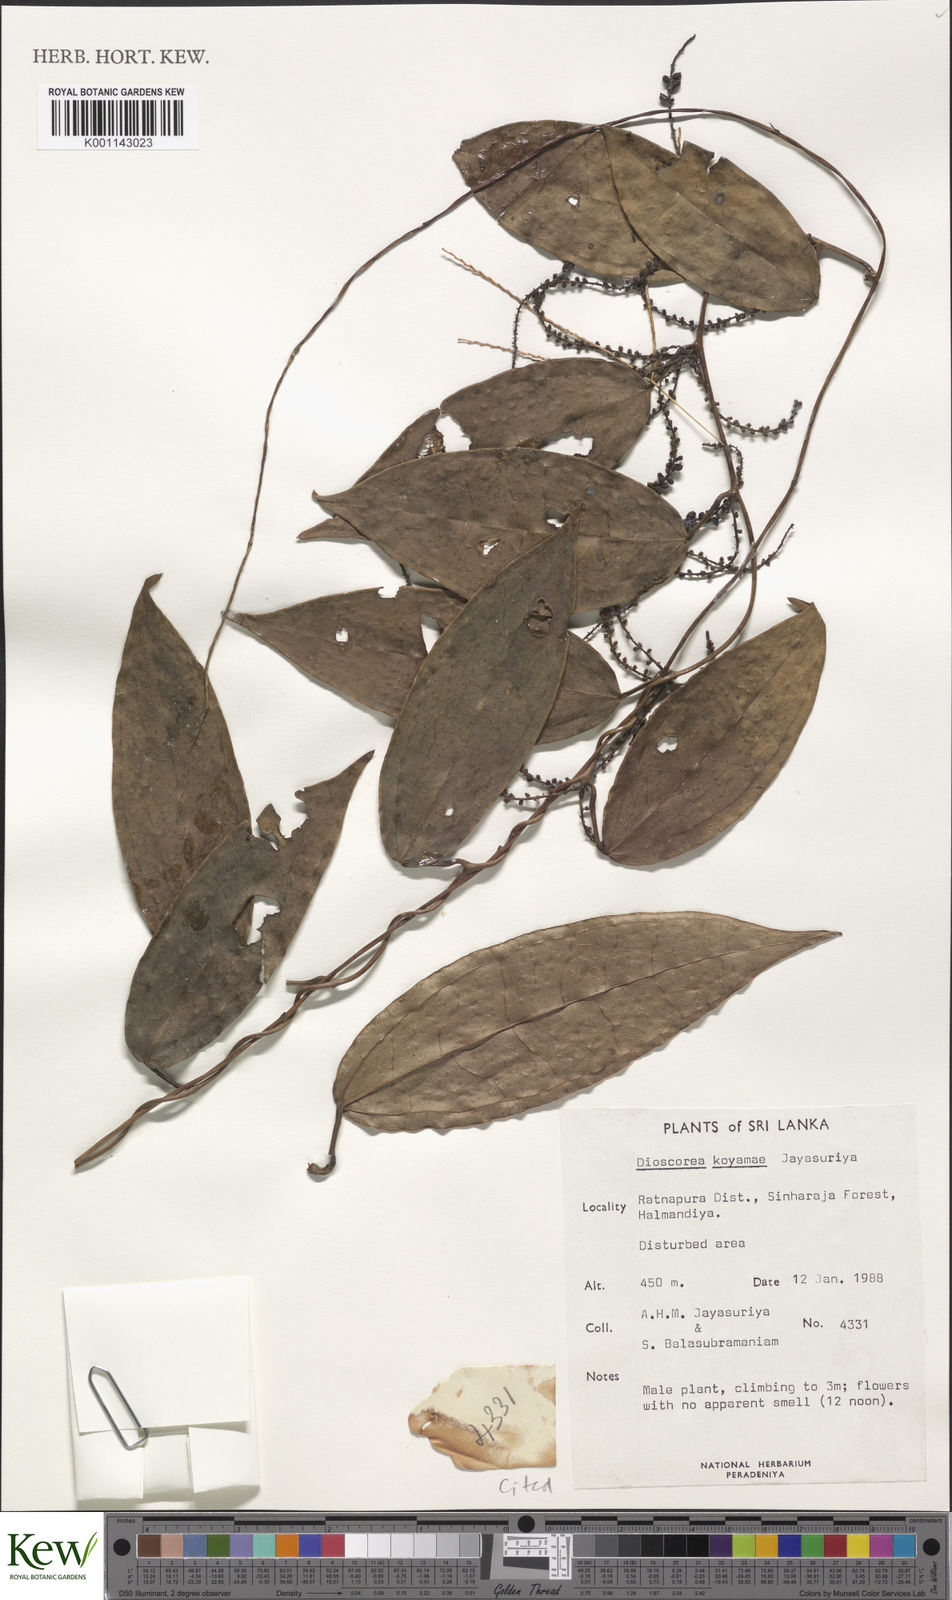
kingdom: Plantae
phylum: Tracheophyta
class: Liliopsida
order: Dioscoreales
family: Dioscoreaceae
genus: Dioscorea
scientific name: Dioscorea koyamae
